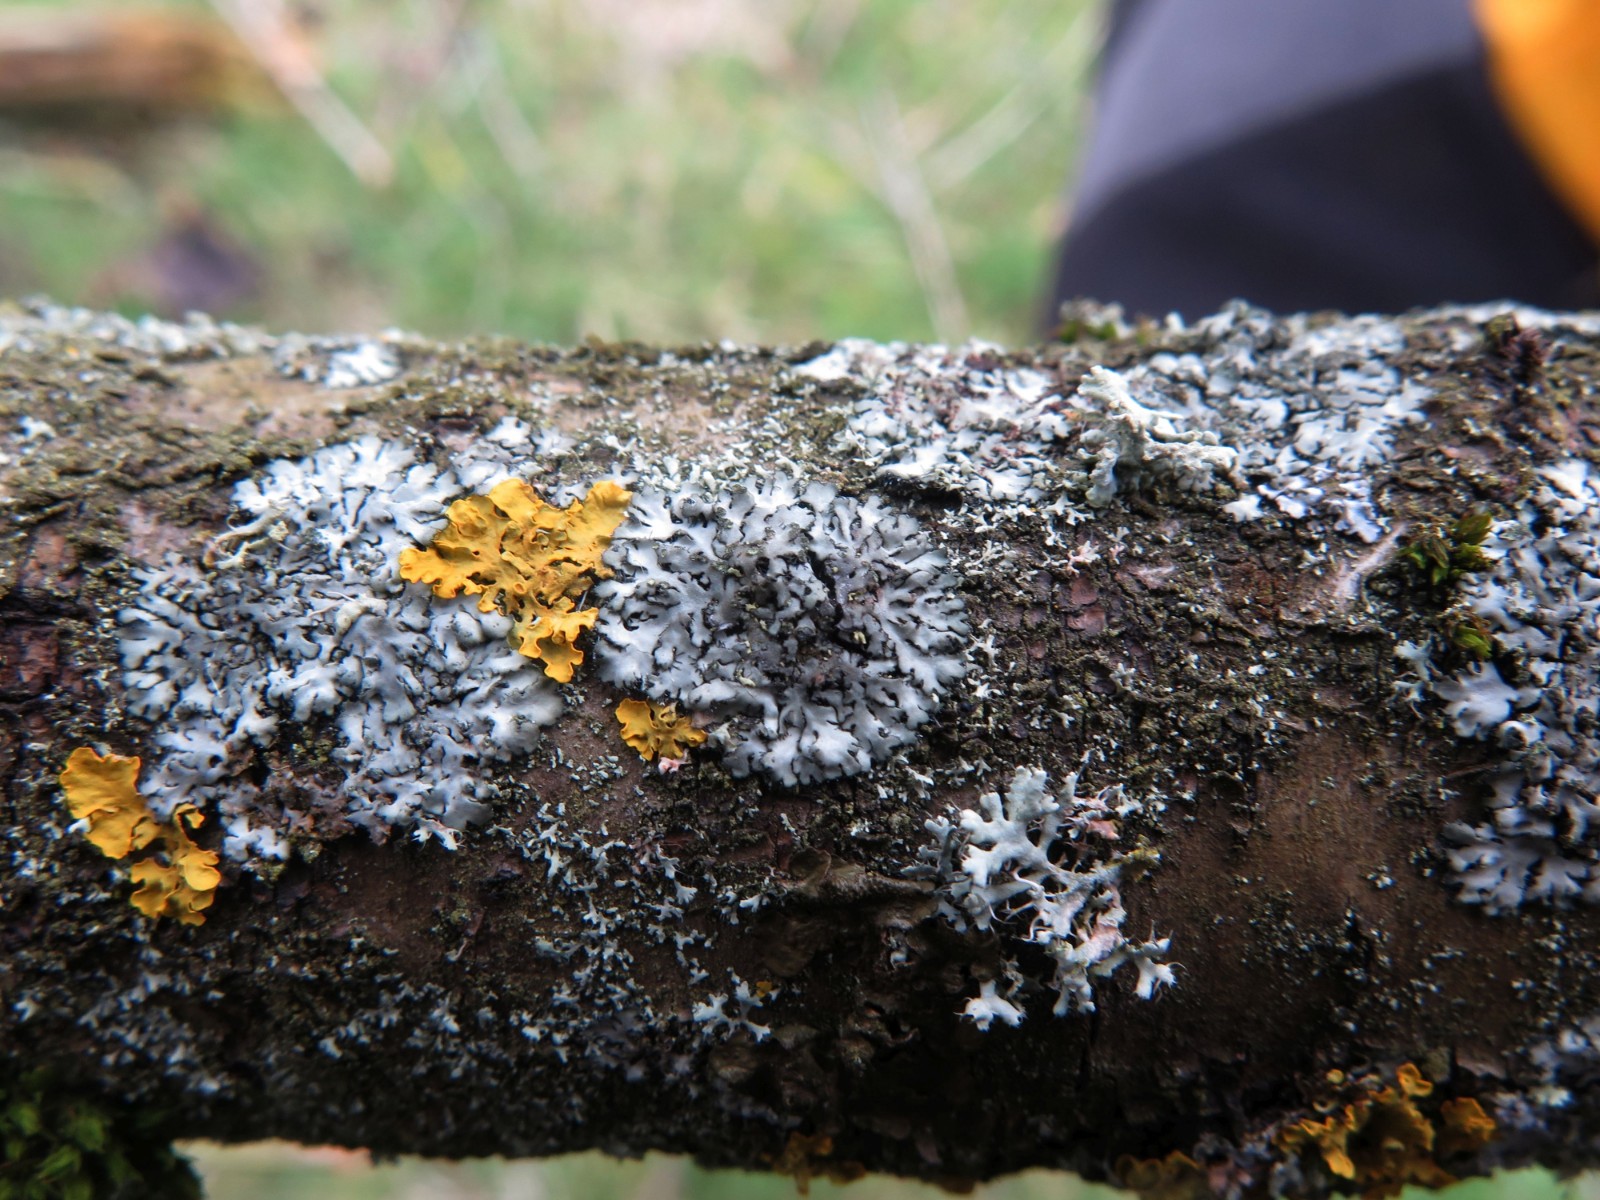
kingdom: Fungi
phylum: Ascomycota
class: Lecanoromycetes
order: Caliciales
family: Physciaceae
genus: Phaeophyscia
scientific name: Phaeophyscia orbicularis
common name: grågrøn rosetlav
